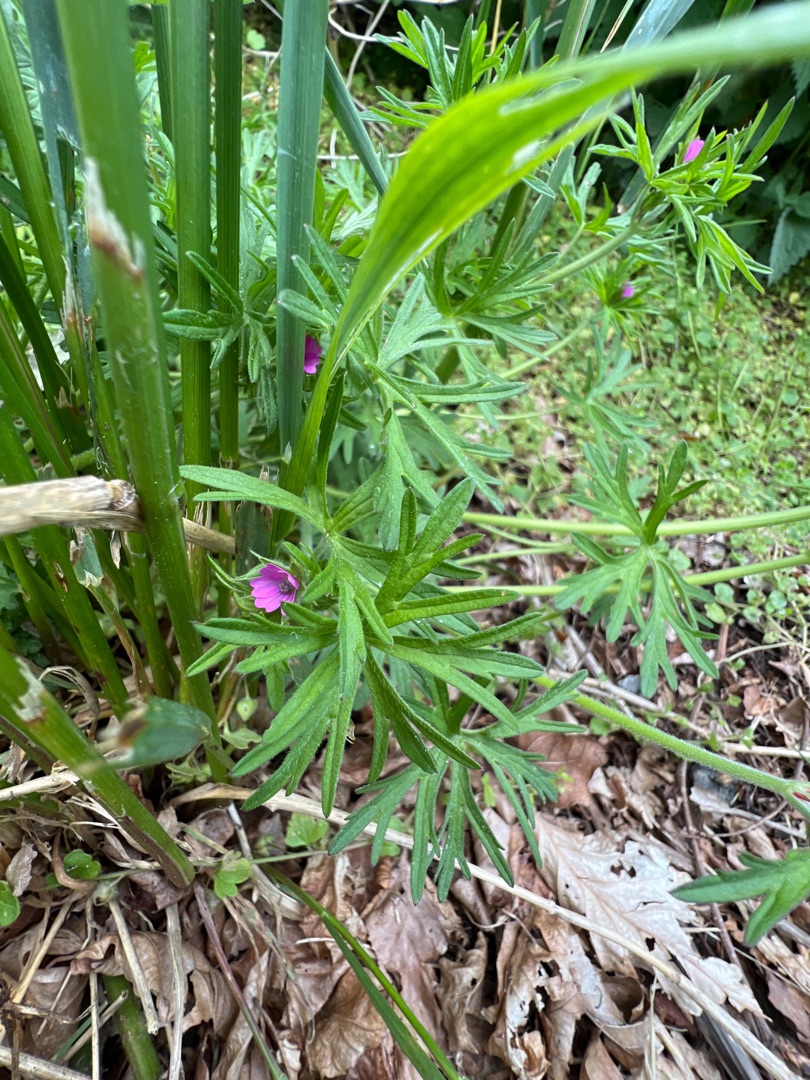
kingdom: Plantae
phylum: Tracheophyta
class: Magnoliopsida
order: Geraniales
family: Geraniaceae
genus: Geranium
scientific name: Geranium dissectum
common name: Kløftet storkenæb
